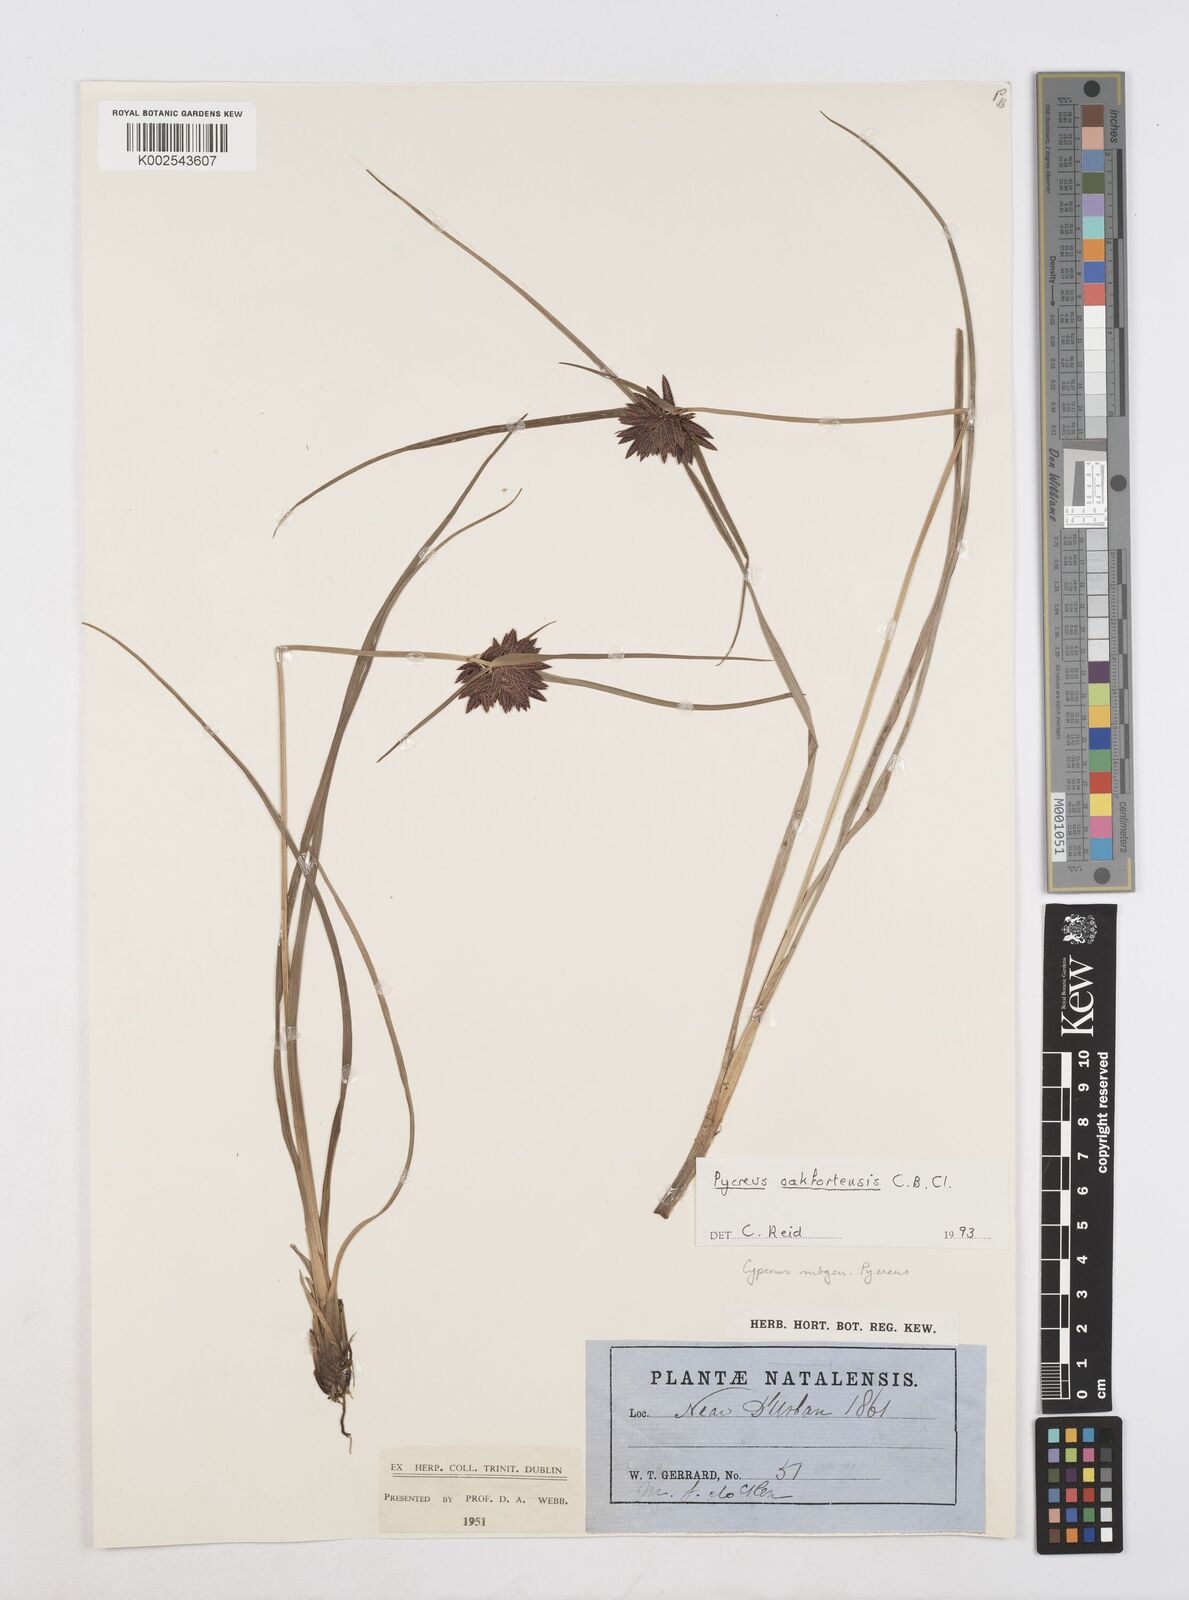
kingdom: Plantae
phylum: Tracheophyta
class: Liliopsida
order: Poales
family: Cyperaceae
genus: Cyperus
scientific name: Cyperus oakfortensis
